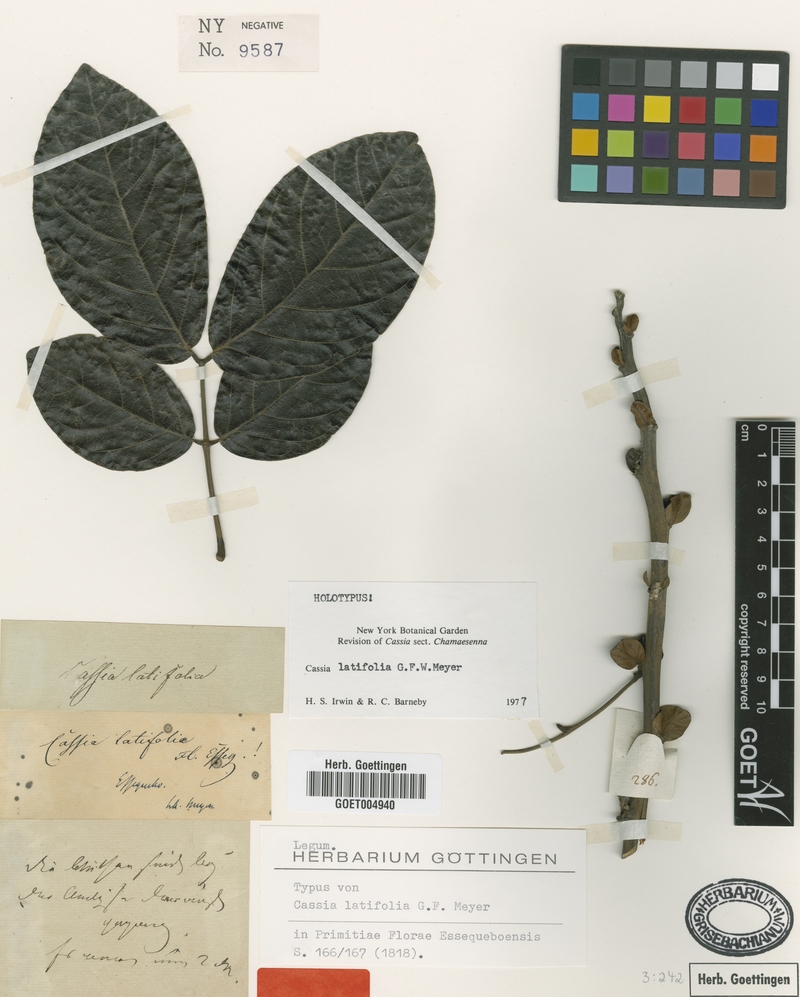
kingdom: Plantae
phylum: Tracheophyta
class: Magnoliopsida
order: Fabales
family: Fabaceae
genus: Senna
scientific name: Senna latifolia
